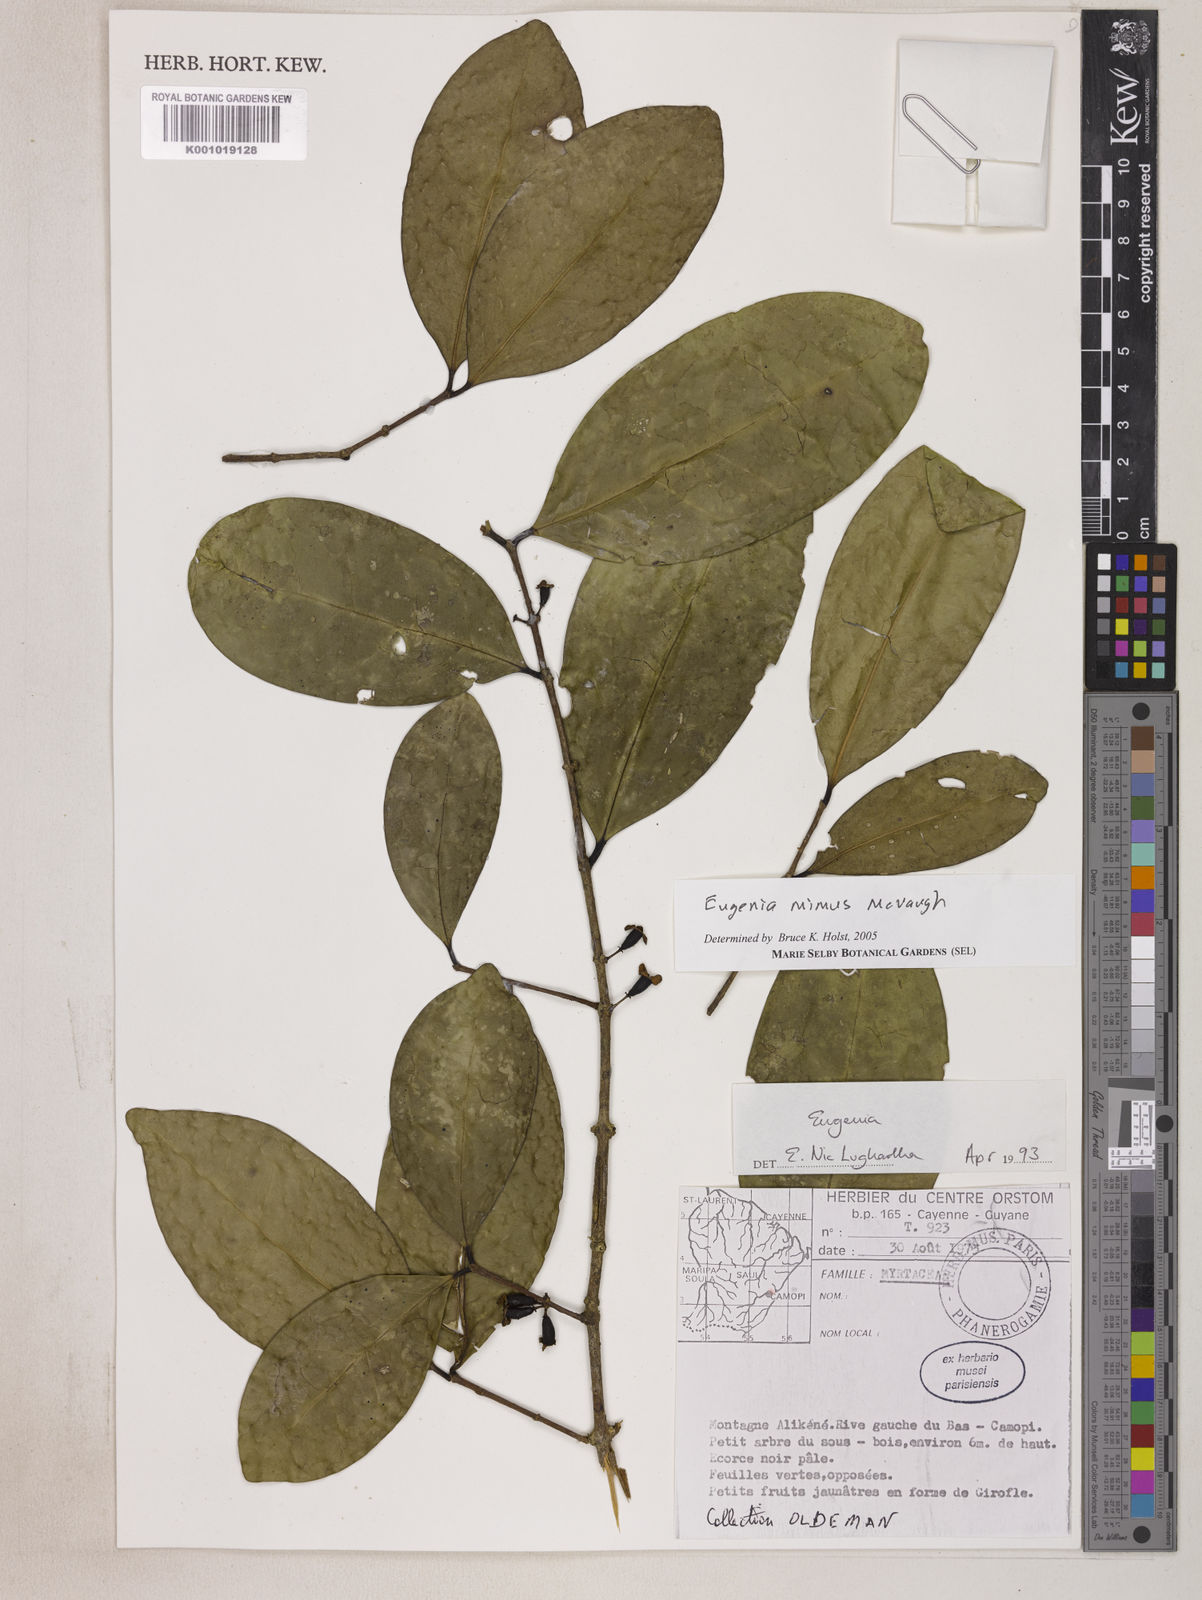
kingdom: Plantae
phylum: Tracheophyta
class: Magnoliopsida
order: Myrtales
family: Myrtaceae
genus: Eugenia
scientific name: Eugenia mimus
